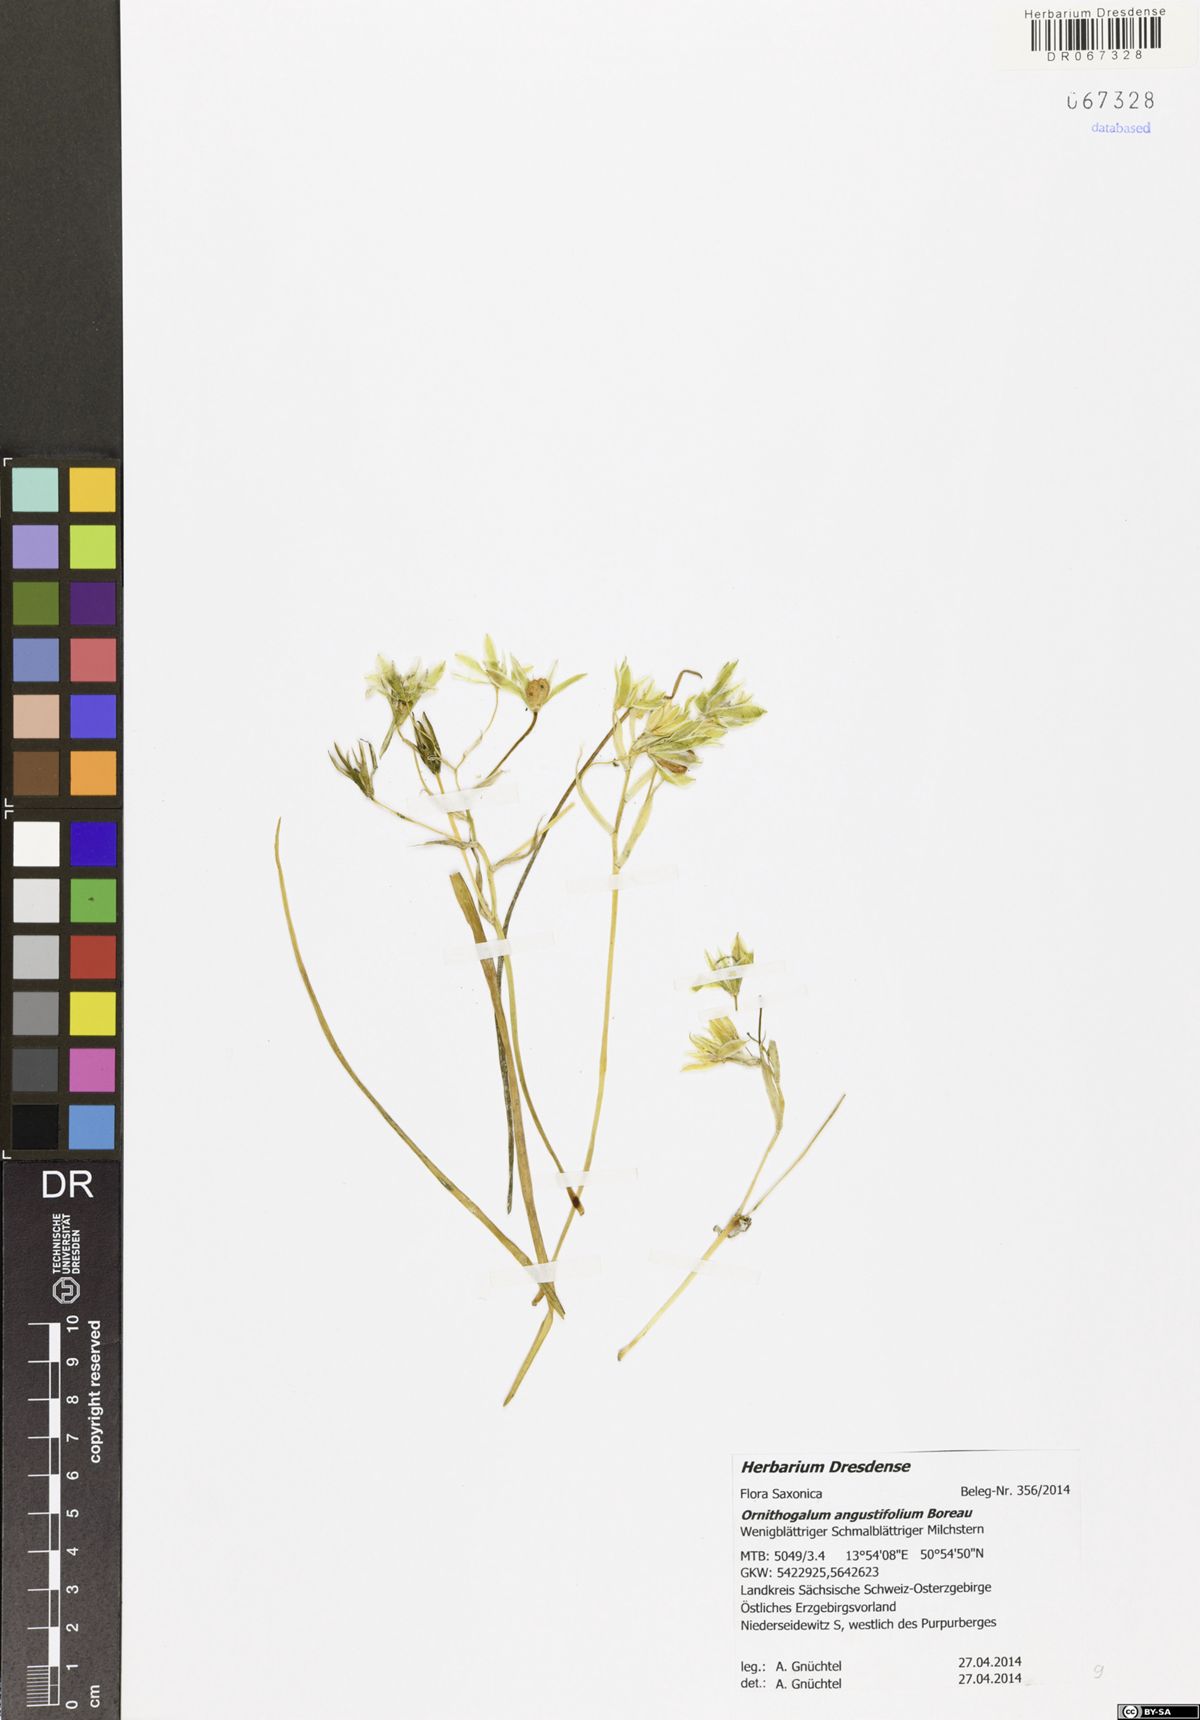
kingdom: Plantae
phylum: Tracheophyta
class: Liliopsida
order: Asparagales
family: Asparagaceae
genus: Ornithogalum
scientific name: Ornithogalum umbellatum
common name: Garden star-of-bethlehem
